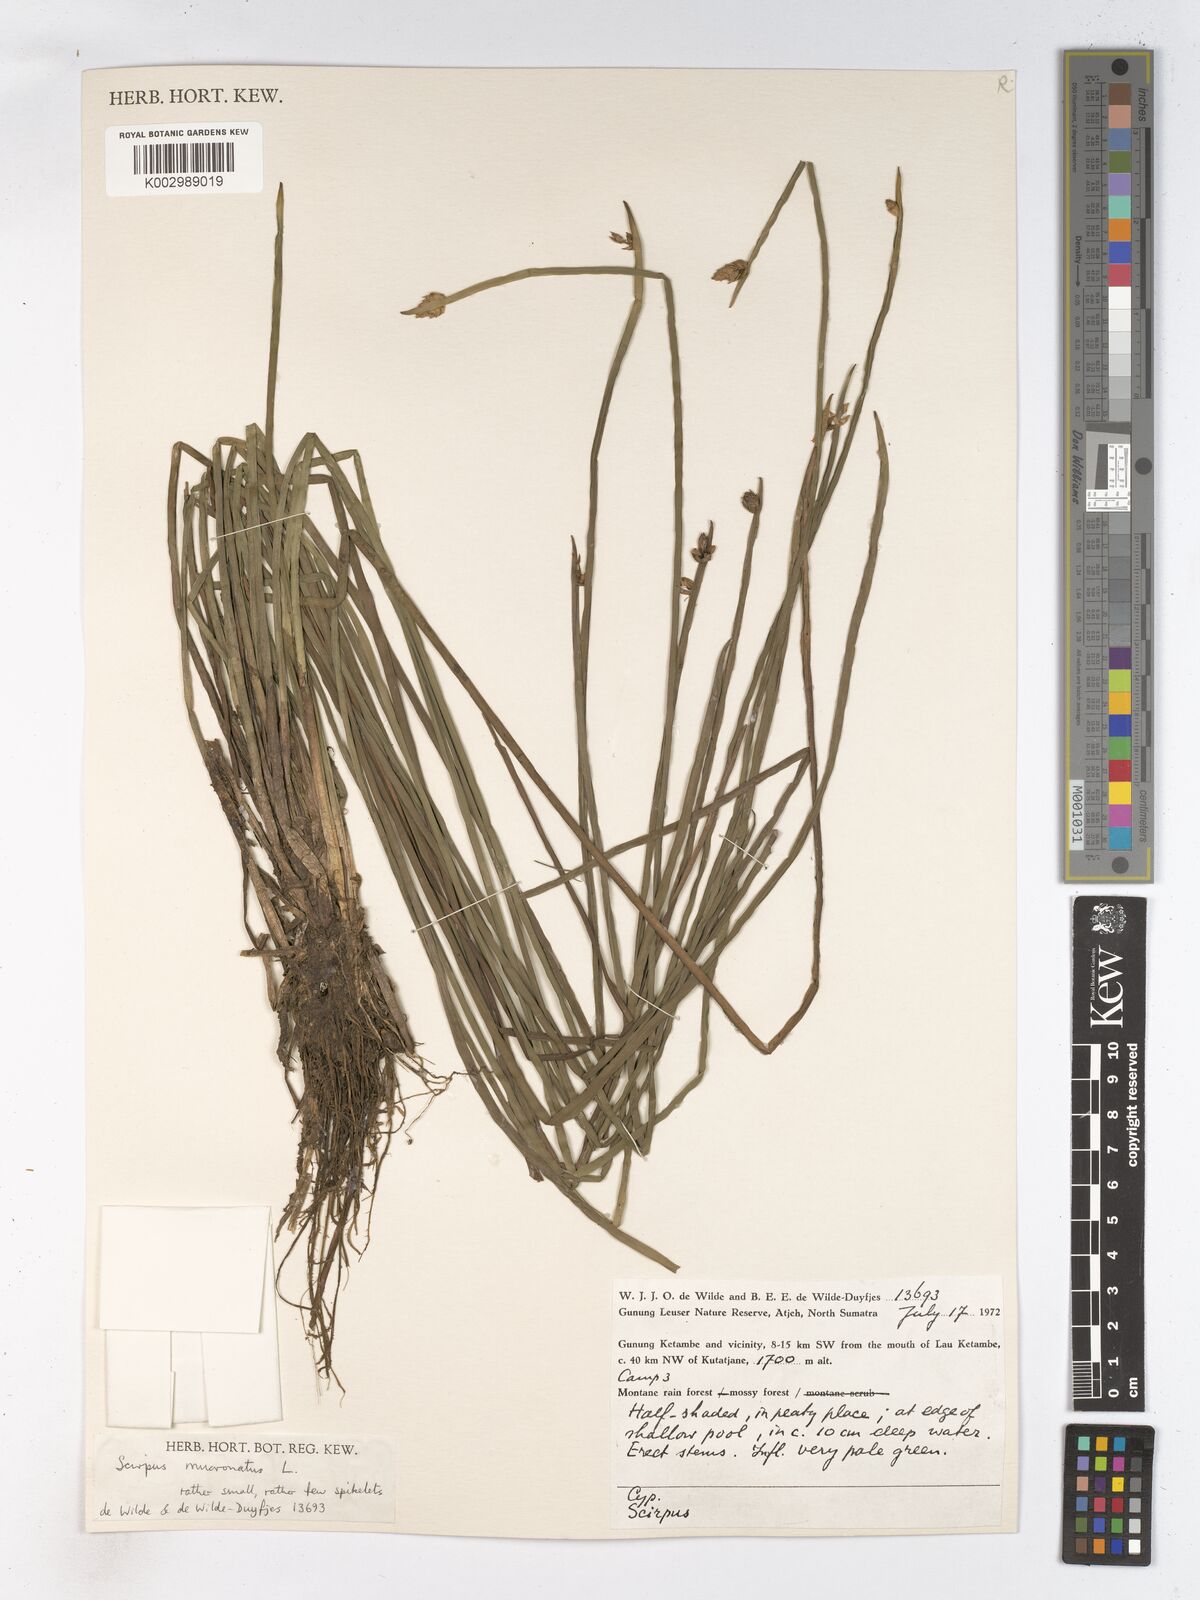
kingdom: Plantae
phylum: Tracheophyta
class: Liliopsida
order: Poales
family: Cyperaceae
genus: Schoenoplectiella
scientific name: Schoenoplectiella mucronata
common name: Bog bulrush
